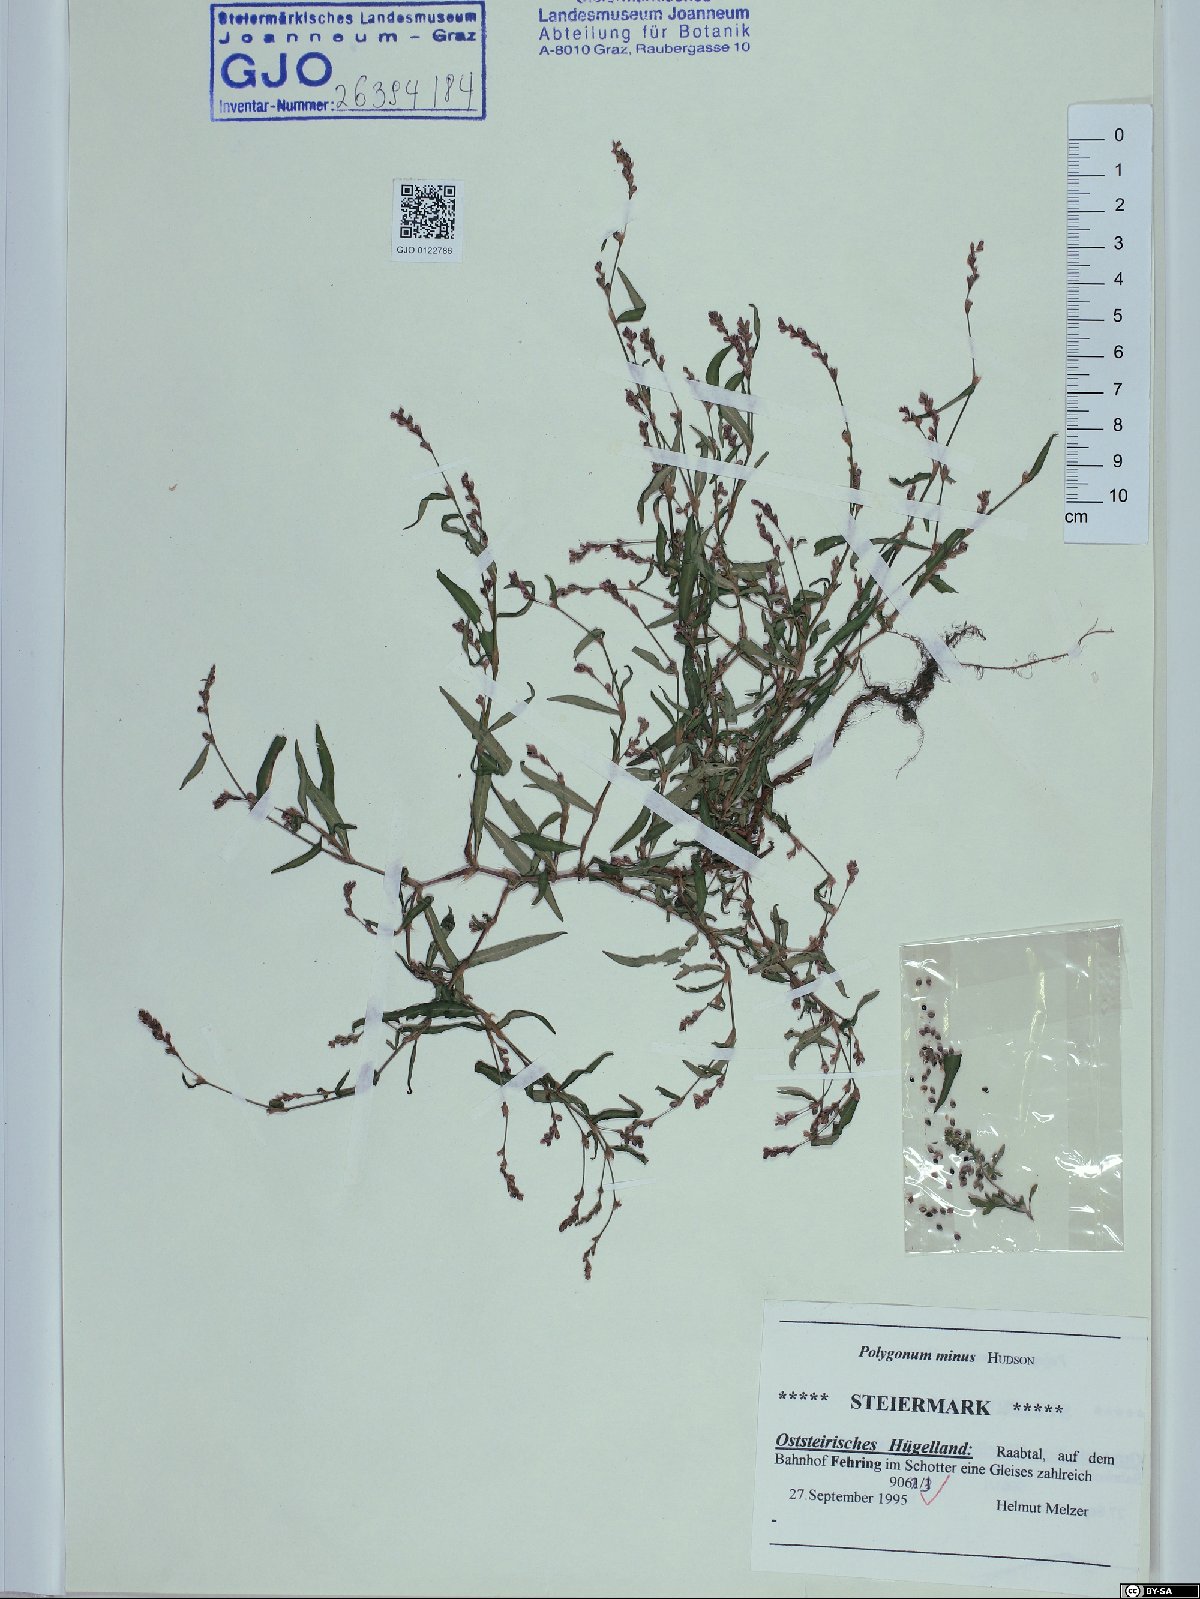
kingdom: Plantae
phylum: Tracheophyta
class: Magnoliopsida
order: Caryophyllales
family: Polygonaceae
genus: Persicaria
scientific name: Persicaria minor
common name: Small water-pepper
